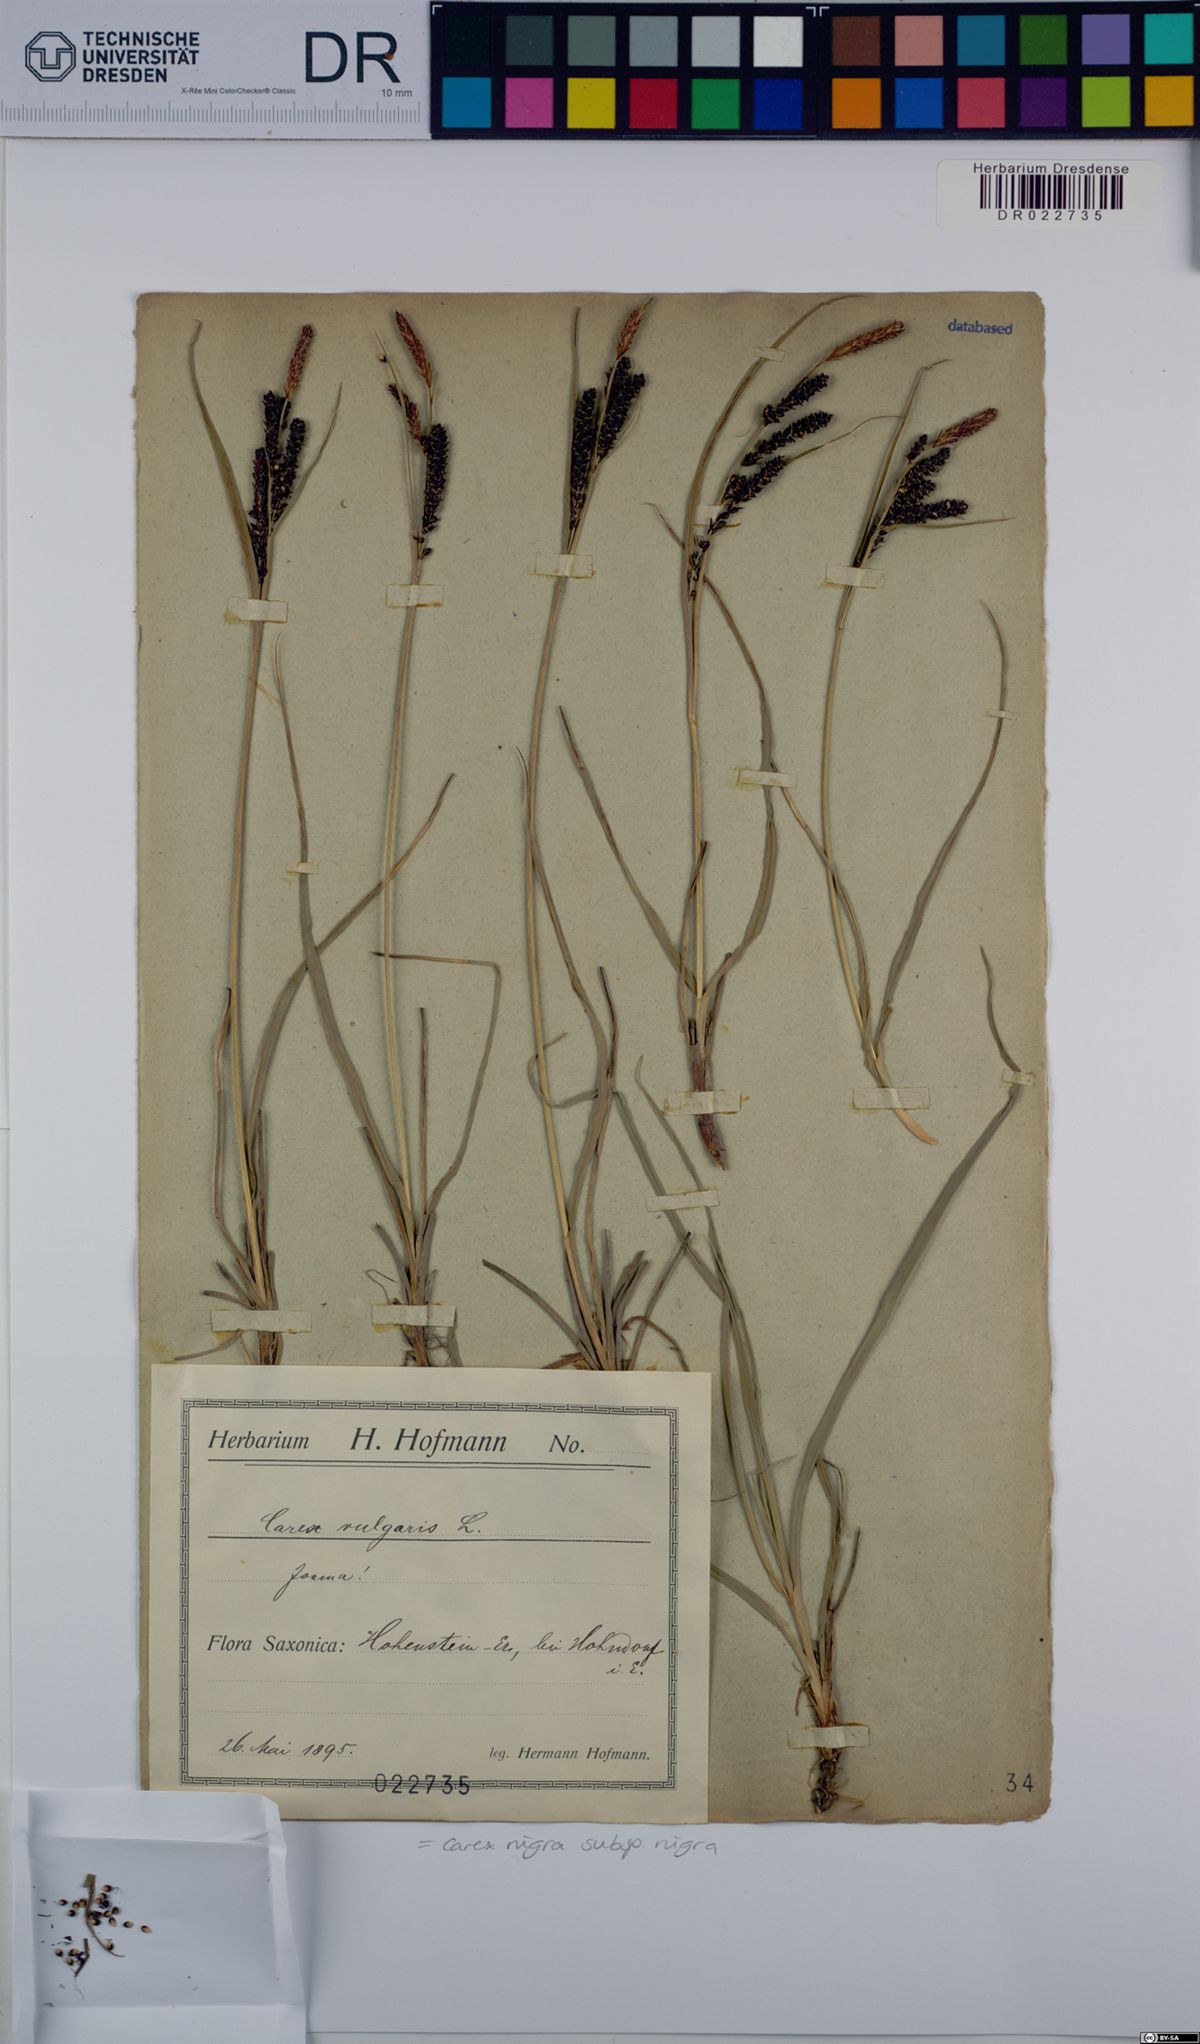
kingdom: Plantae
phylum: Tracheophyta
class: Liliopsida
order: Poales
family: Cyperaceae
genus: Carex
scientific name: Carex nigra
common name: Common sedge
